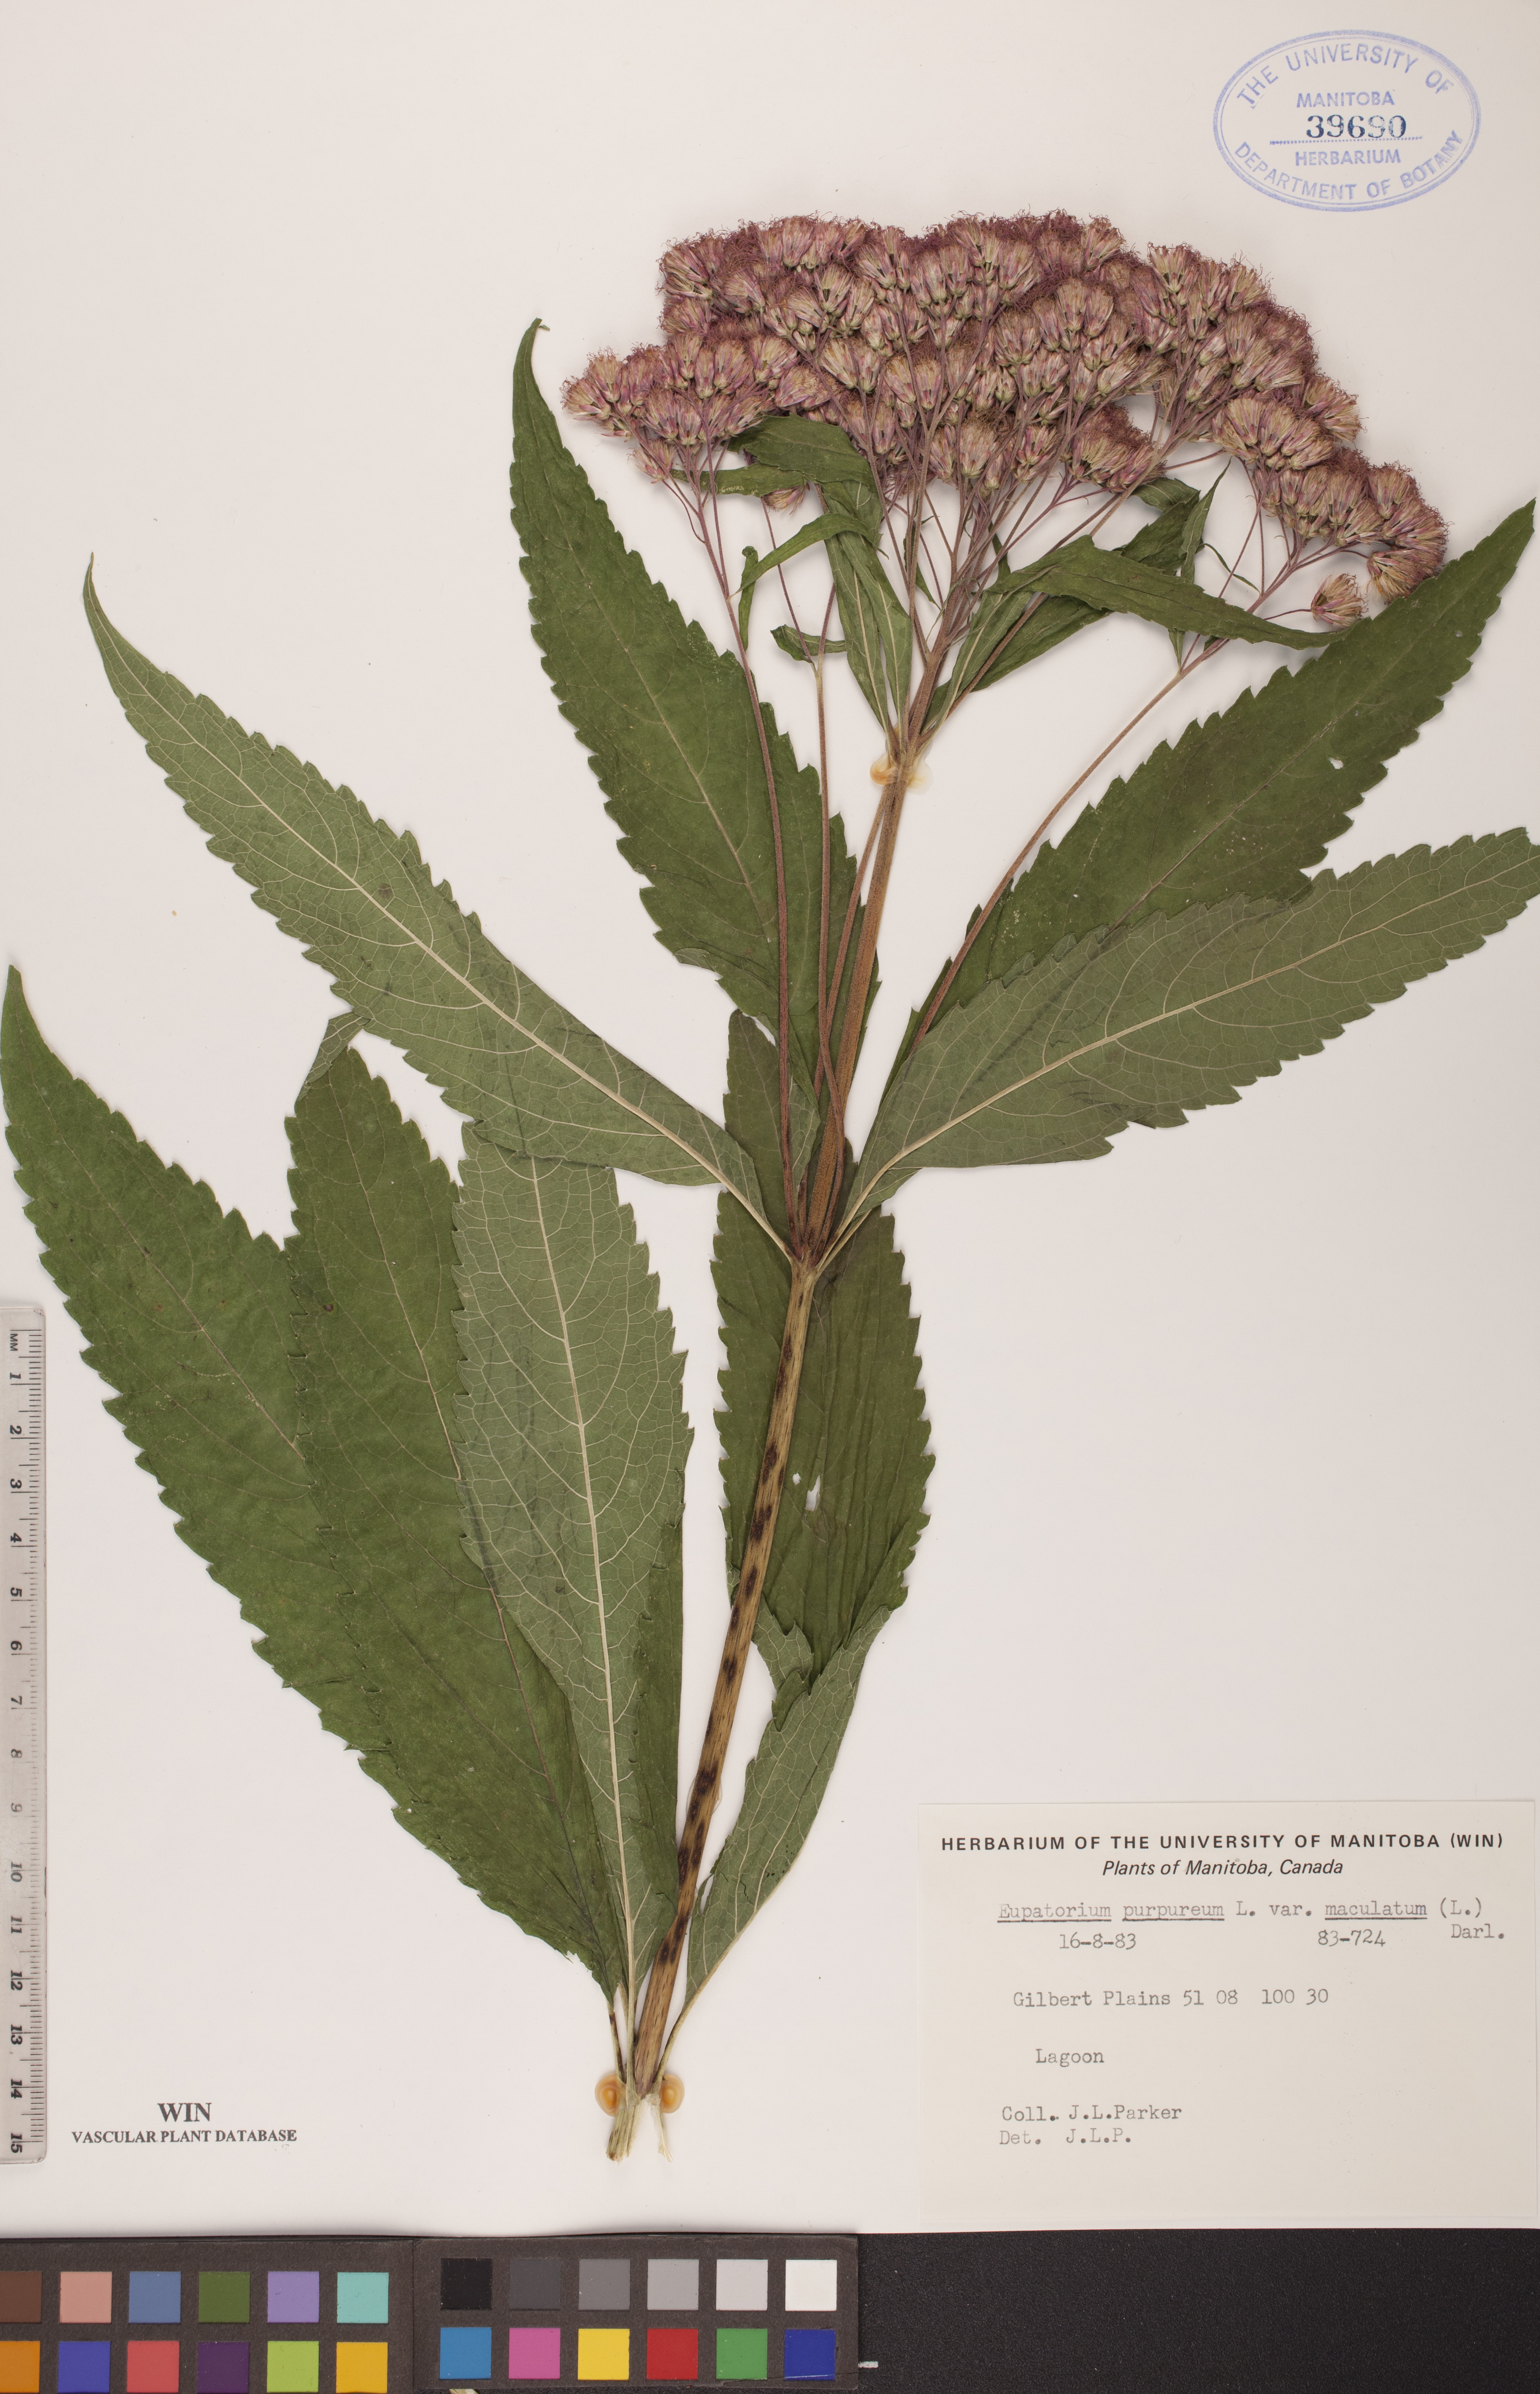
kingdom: Plantae
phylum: Tracheophyta
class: Magnoliopsida
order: Asterales
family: Asteraceae
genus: Eutrochium
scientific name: Eutrochium maculatum
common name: Spotted joe pye weed
